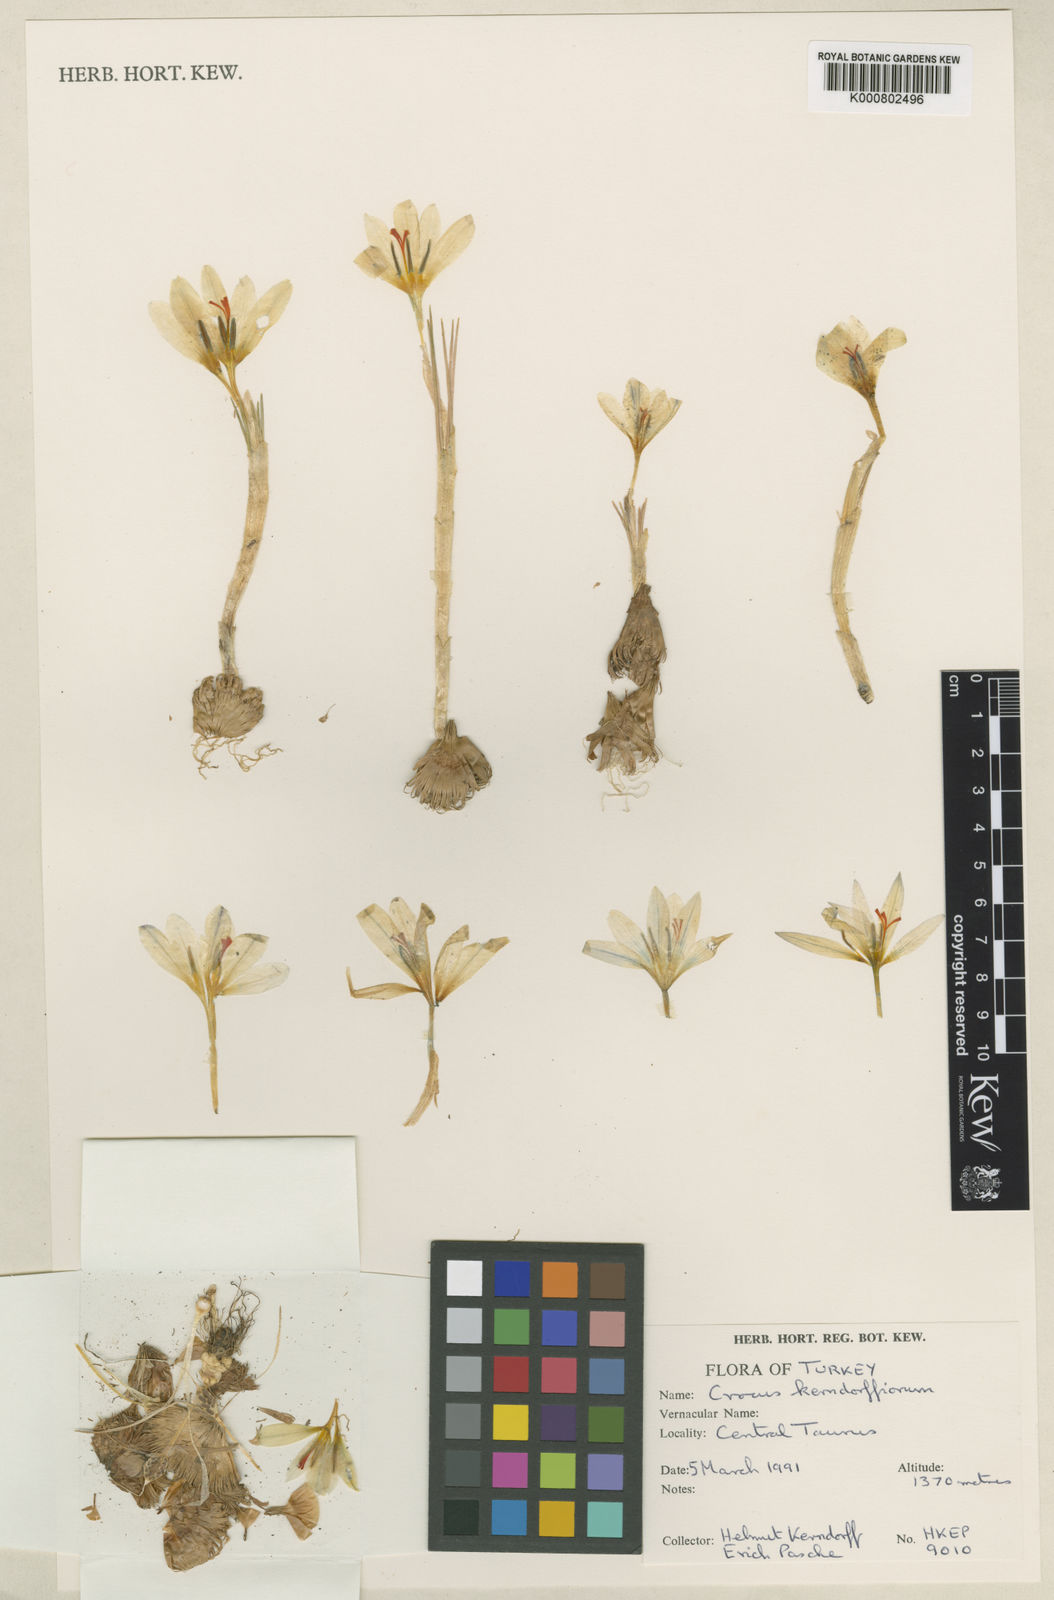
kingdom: Plantae
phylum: Tracheophyta
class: Liliopsida
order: Asparagales
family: Iridaceae
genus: Crocus
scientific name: Crocus kerndorffiorum
